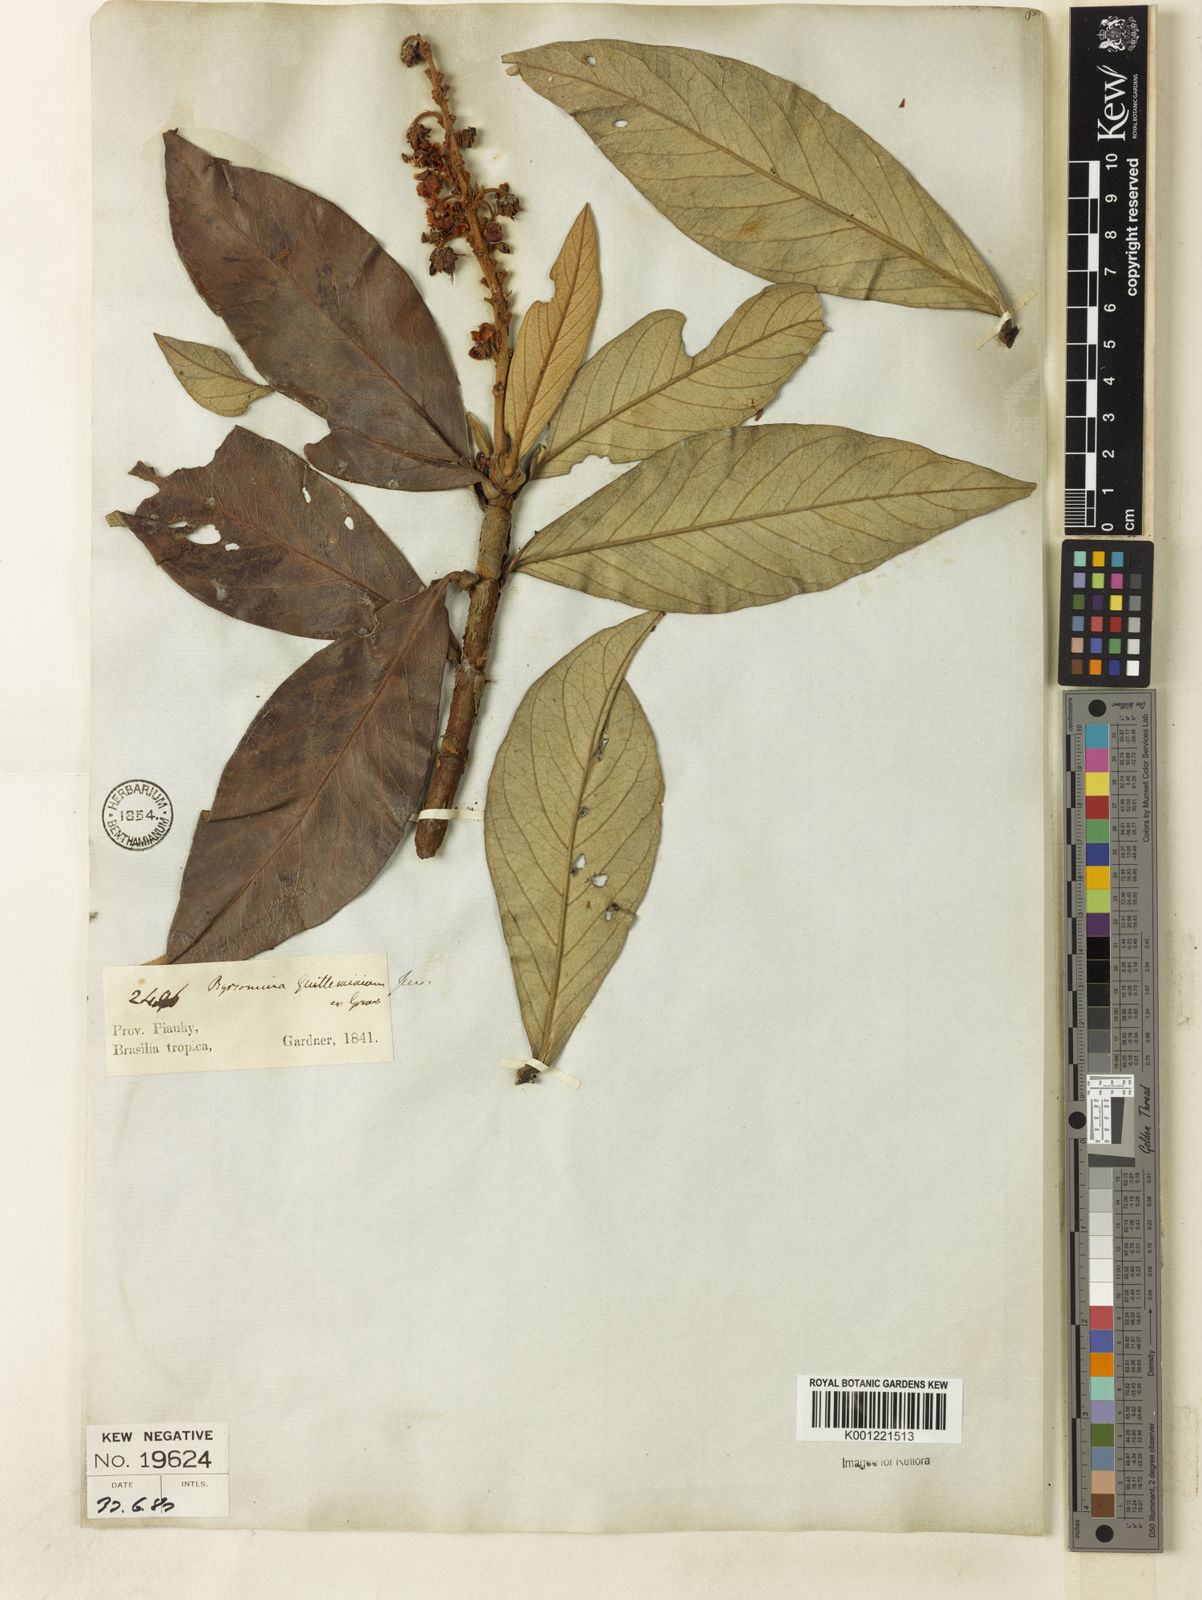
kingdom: Plantae
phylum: Tracheophyta
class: Magnoliopsida
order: Malpighiales
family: Malpighiaceae
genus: Byrsonima
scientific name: Byrsonima guilleminiana
